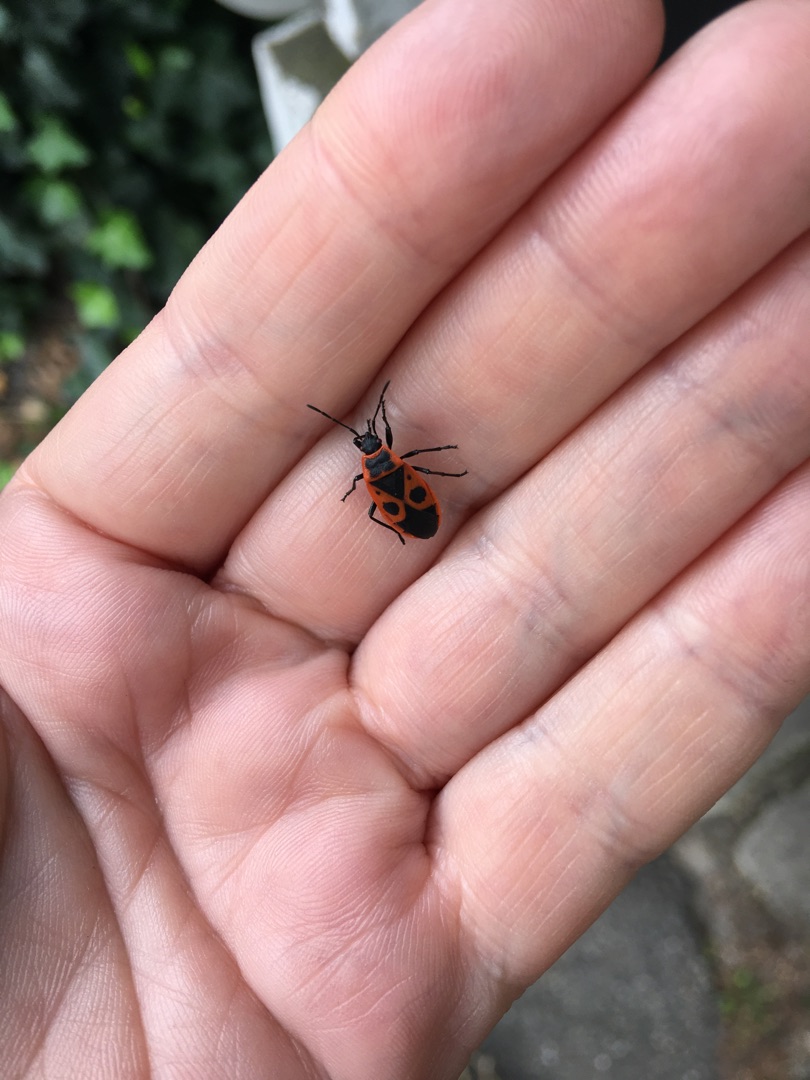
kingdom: Animalia
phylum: Arthropoda
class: Insecta
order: Hemiptera
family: Pyrrhocoridae
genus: Pyrrhocoris
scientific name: Pyrrhocoris apterus
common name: Ildtæge
